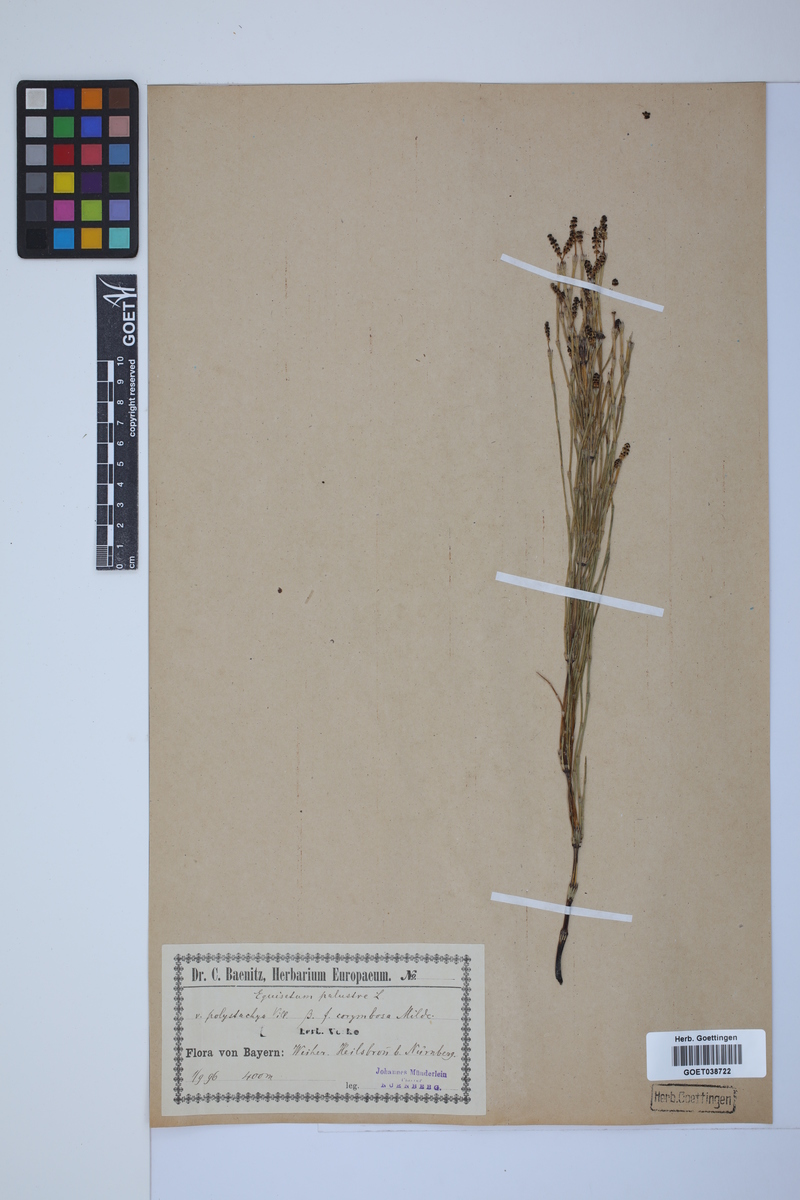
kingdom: Plantae
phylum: Tracheophyta
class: Polypodiopsida
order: Equisetales
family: Equisetaceae
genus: Equisetum
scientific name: Equisetum palustre
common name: Marsh horsetail
